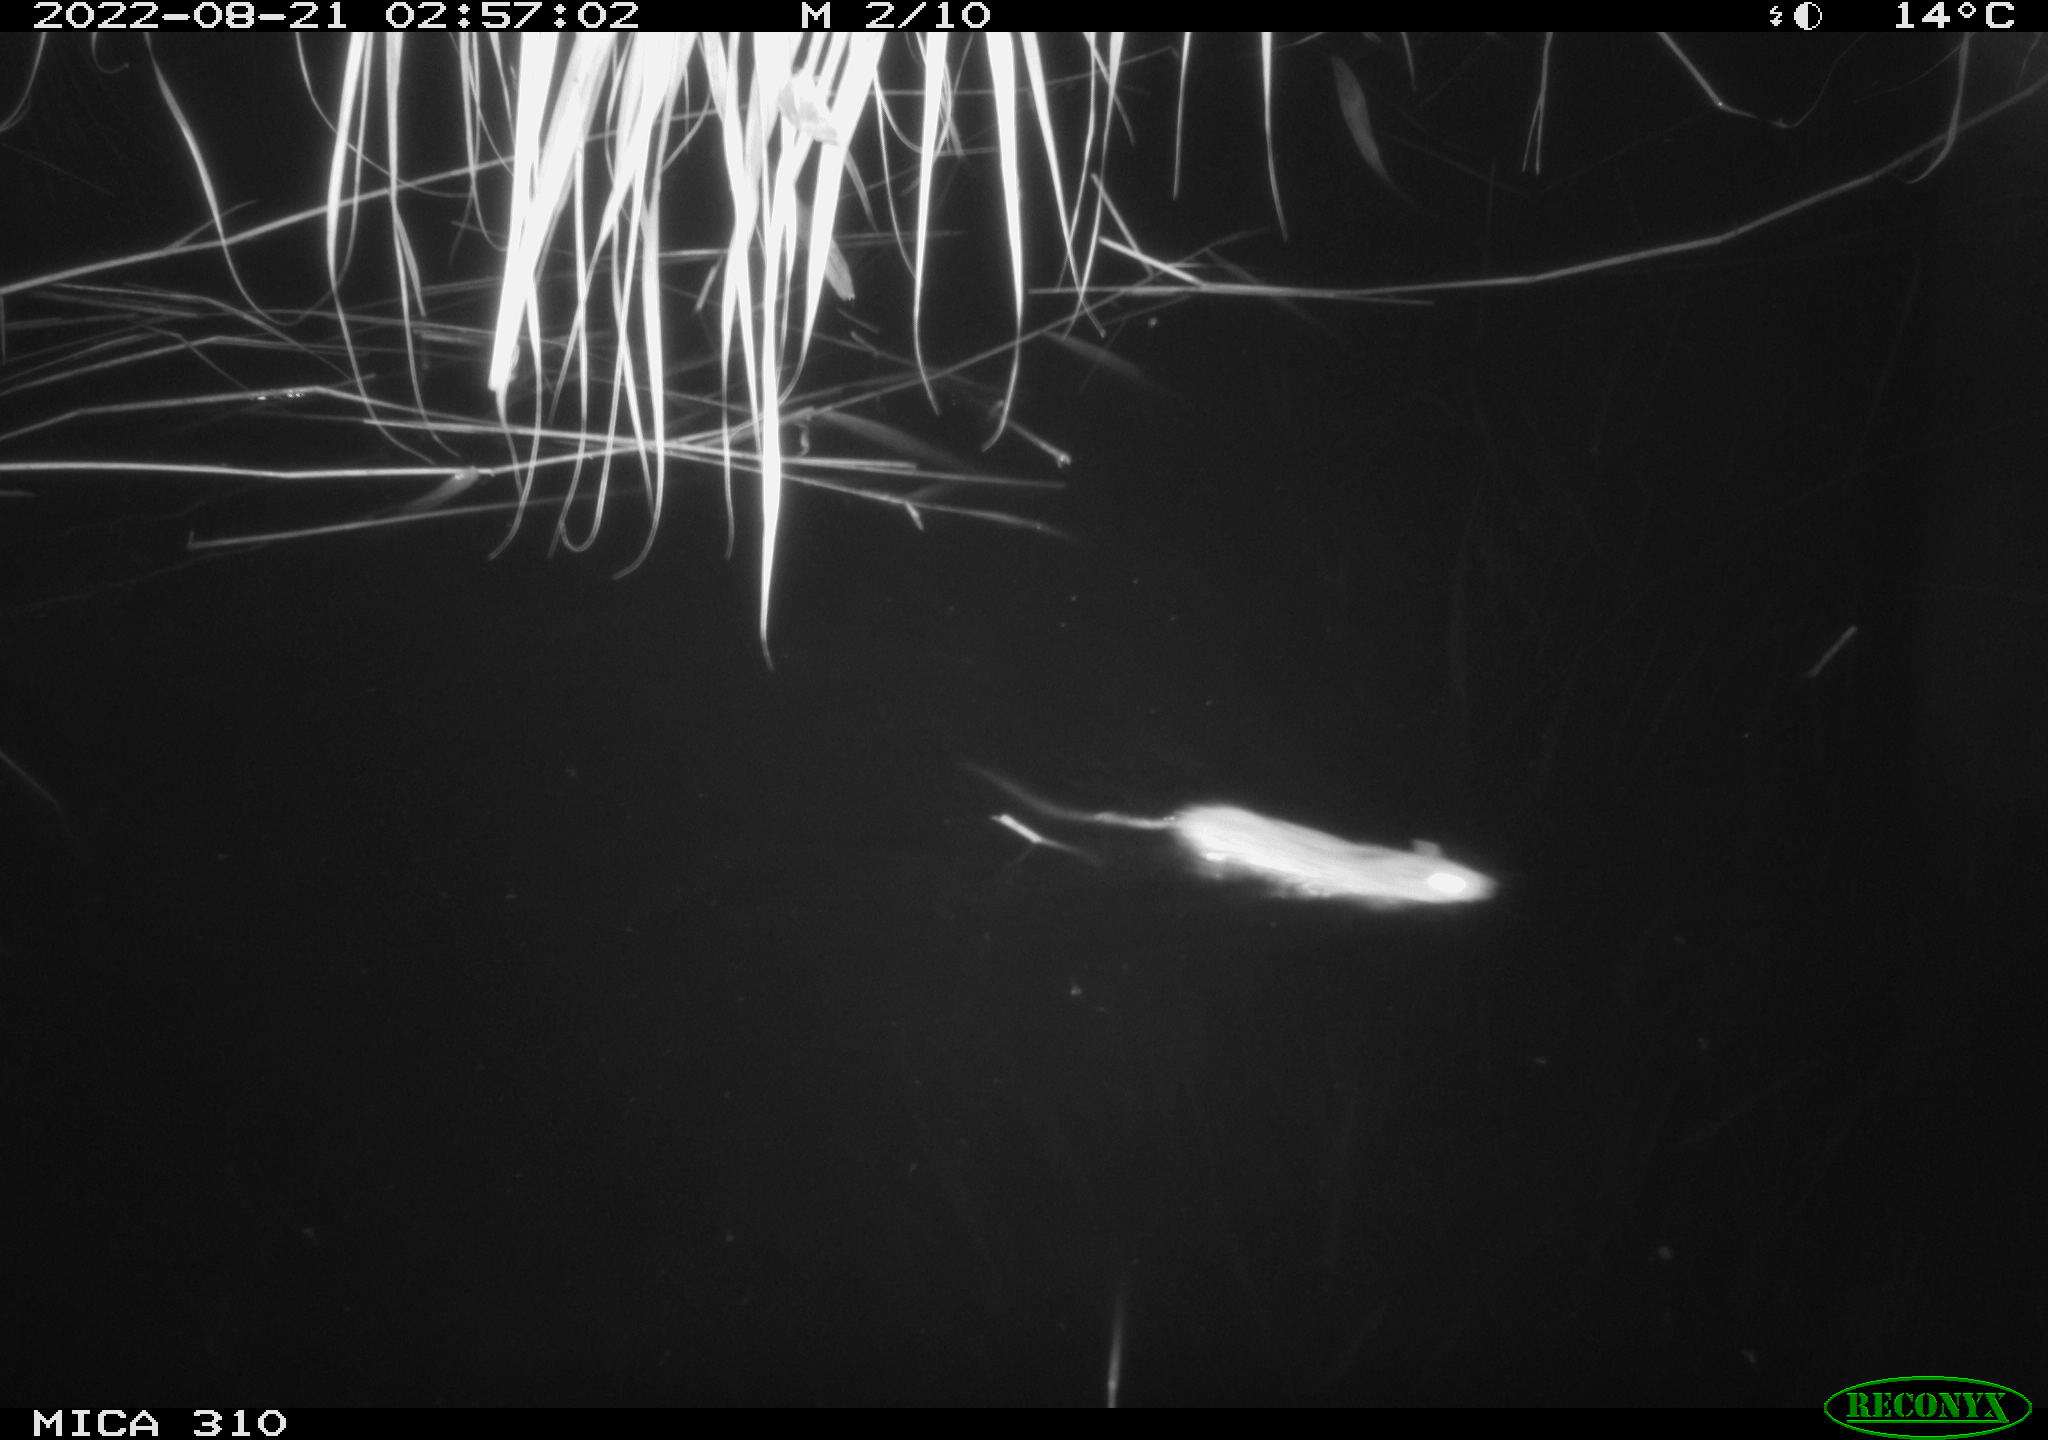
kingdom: Animalia
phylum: Chordata
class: Mammalia
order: Rodentia
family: Muridae
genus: Rattus
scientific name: Rattus norvegicus
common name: Brown rat
